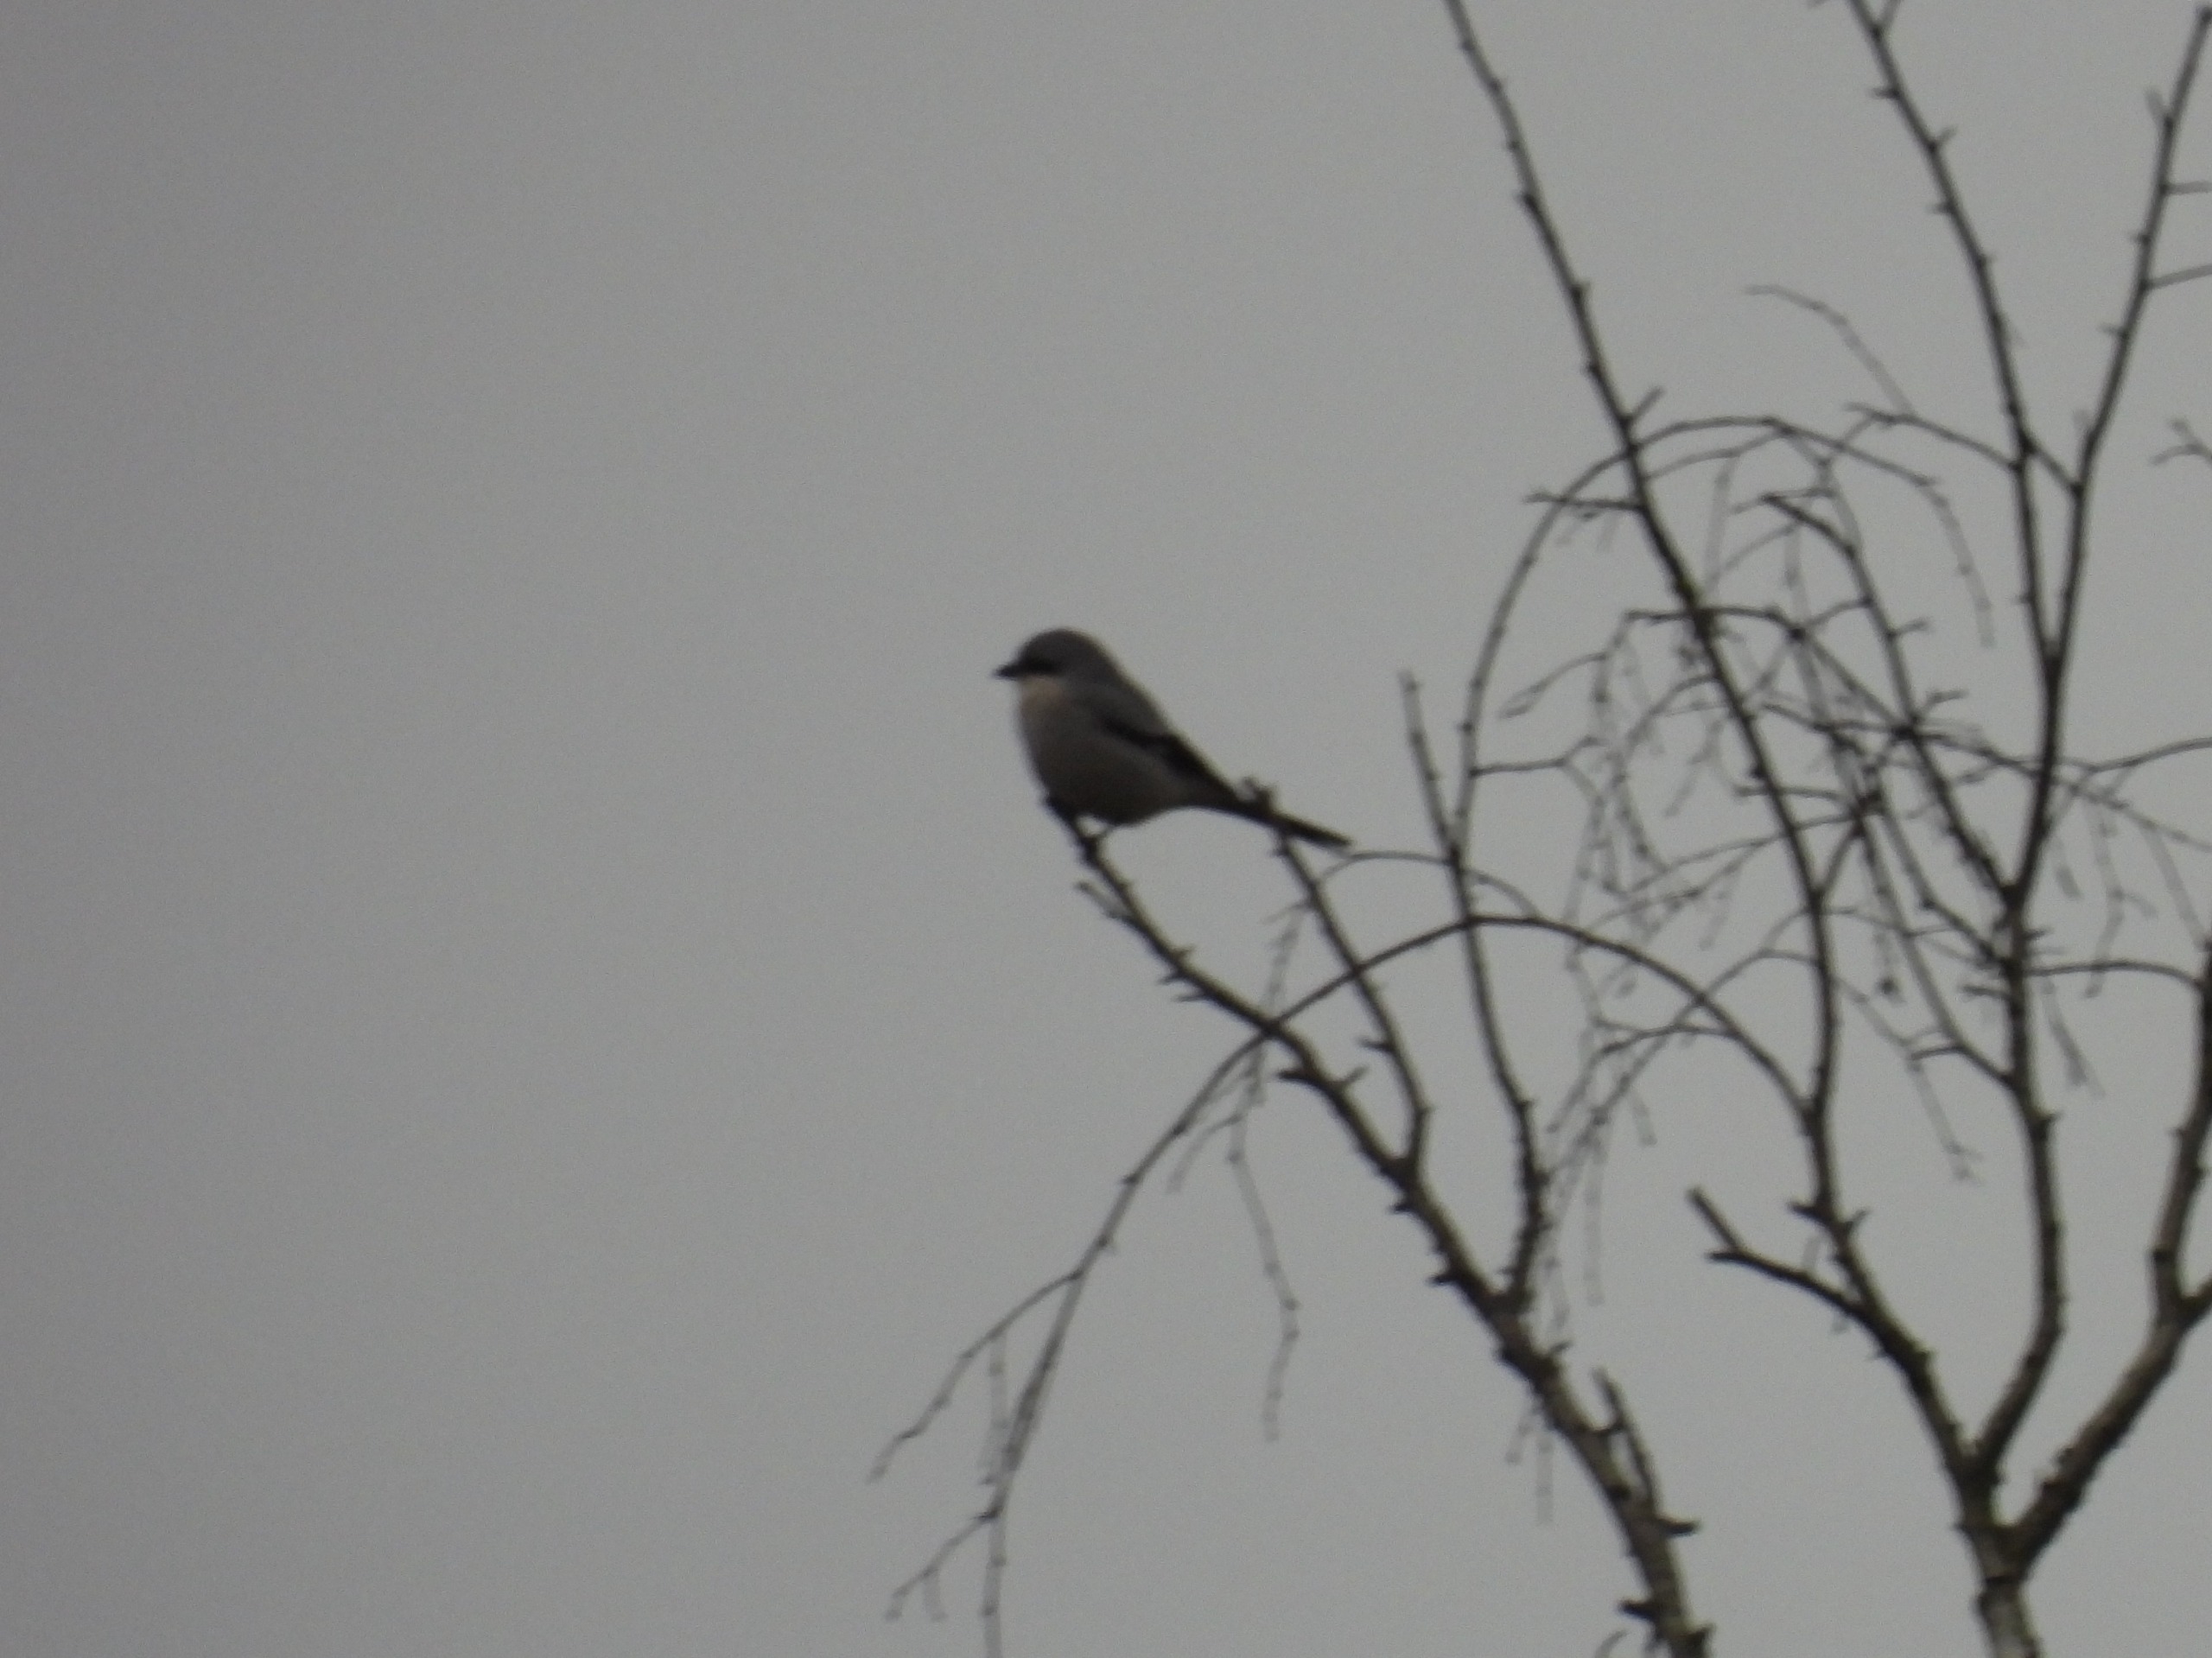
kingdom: Animalia
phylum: Chordata
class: Aves
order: Passeriformes
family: Laniidae
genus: Lanius
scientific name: Lanius excubitor
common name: Stor tornskade
